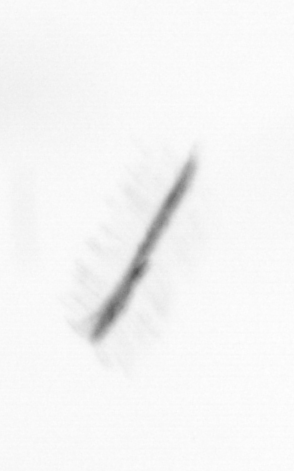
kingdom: Chromista
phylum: Ochrophyta
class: Bacillariophyceae
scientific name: Bacillariophyceae
